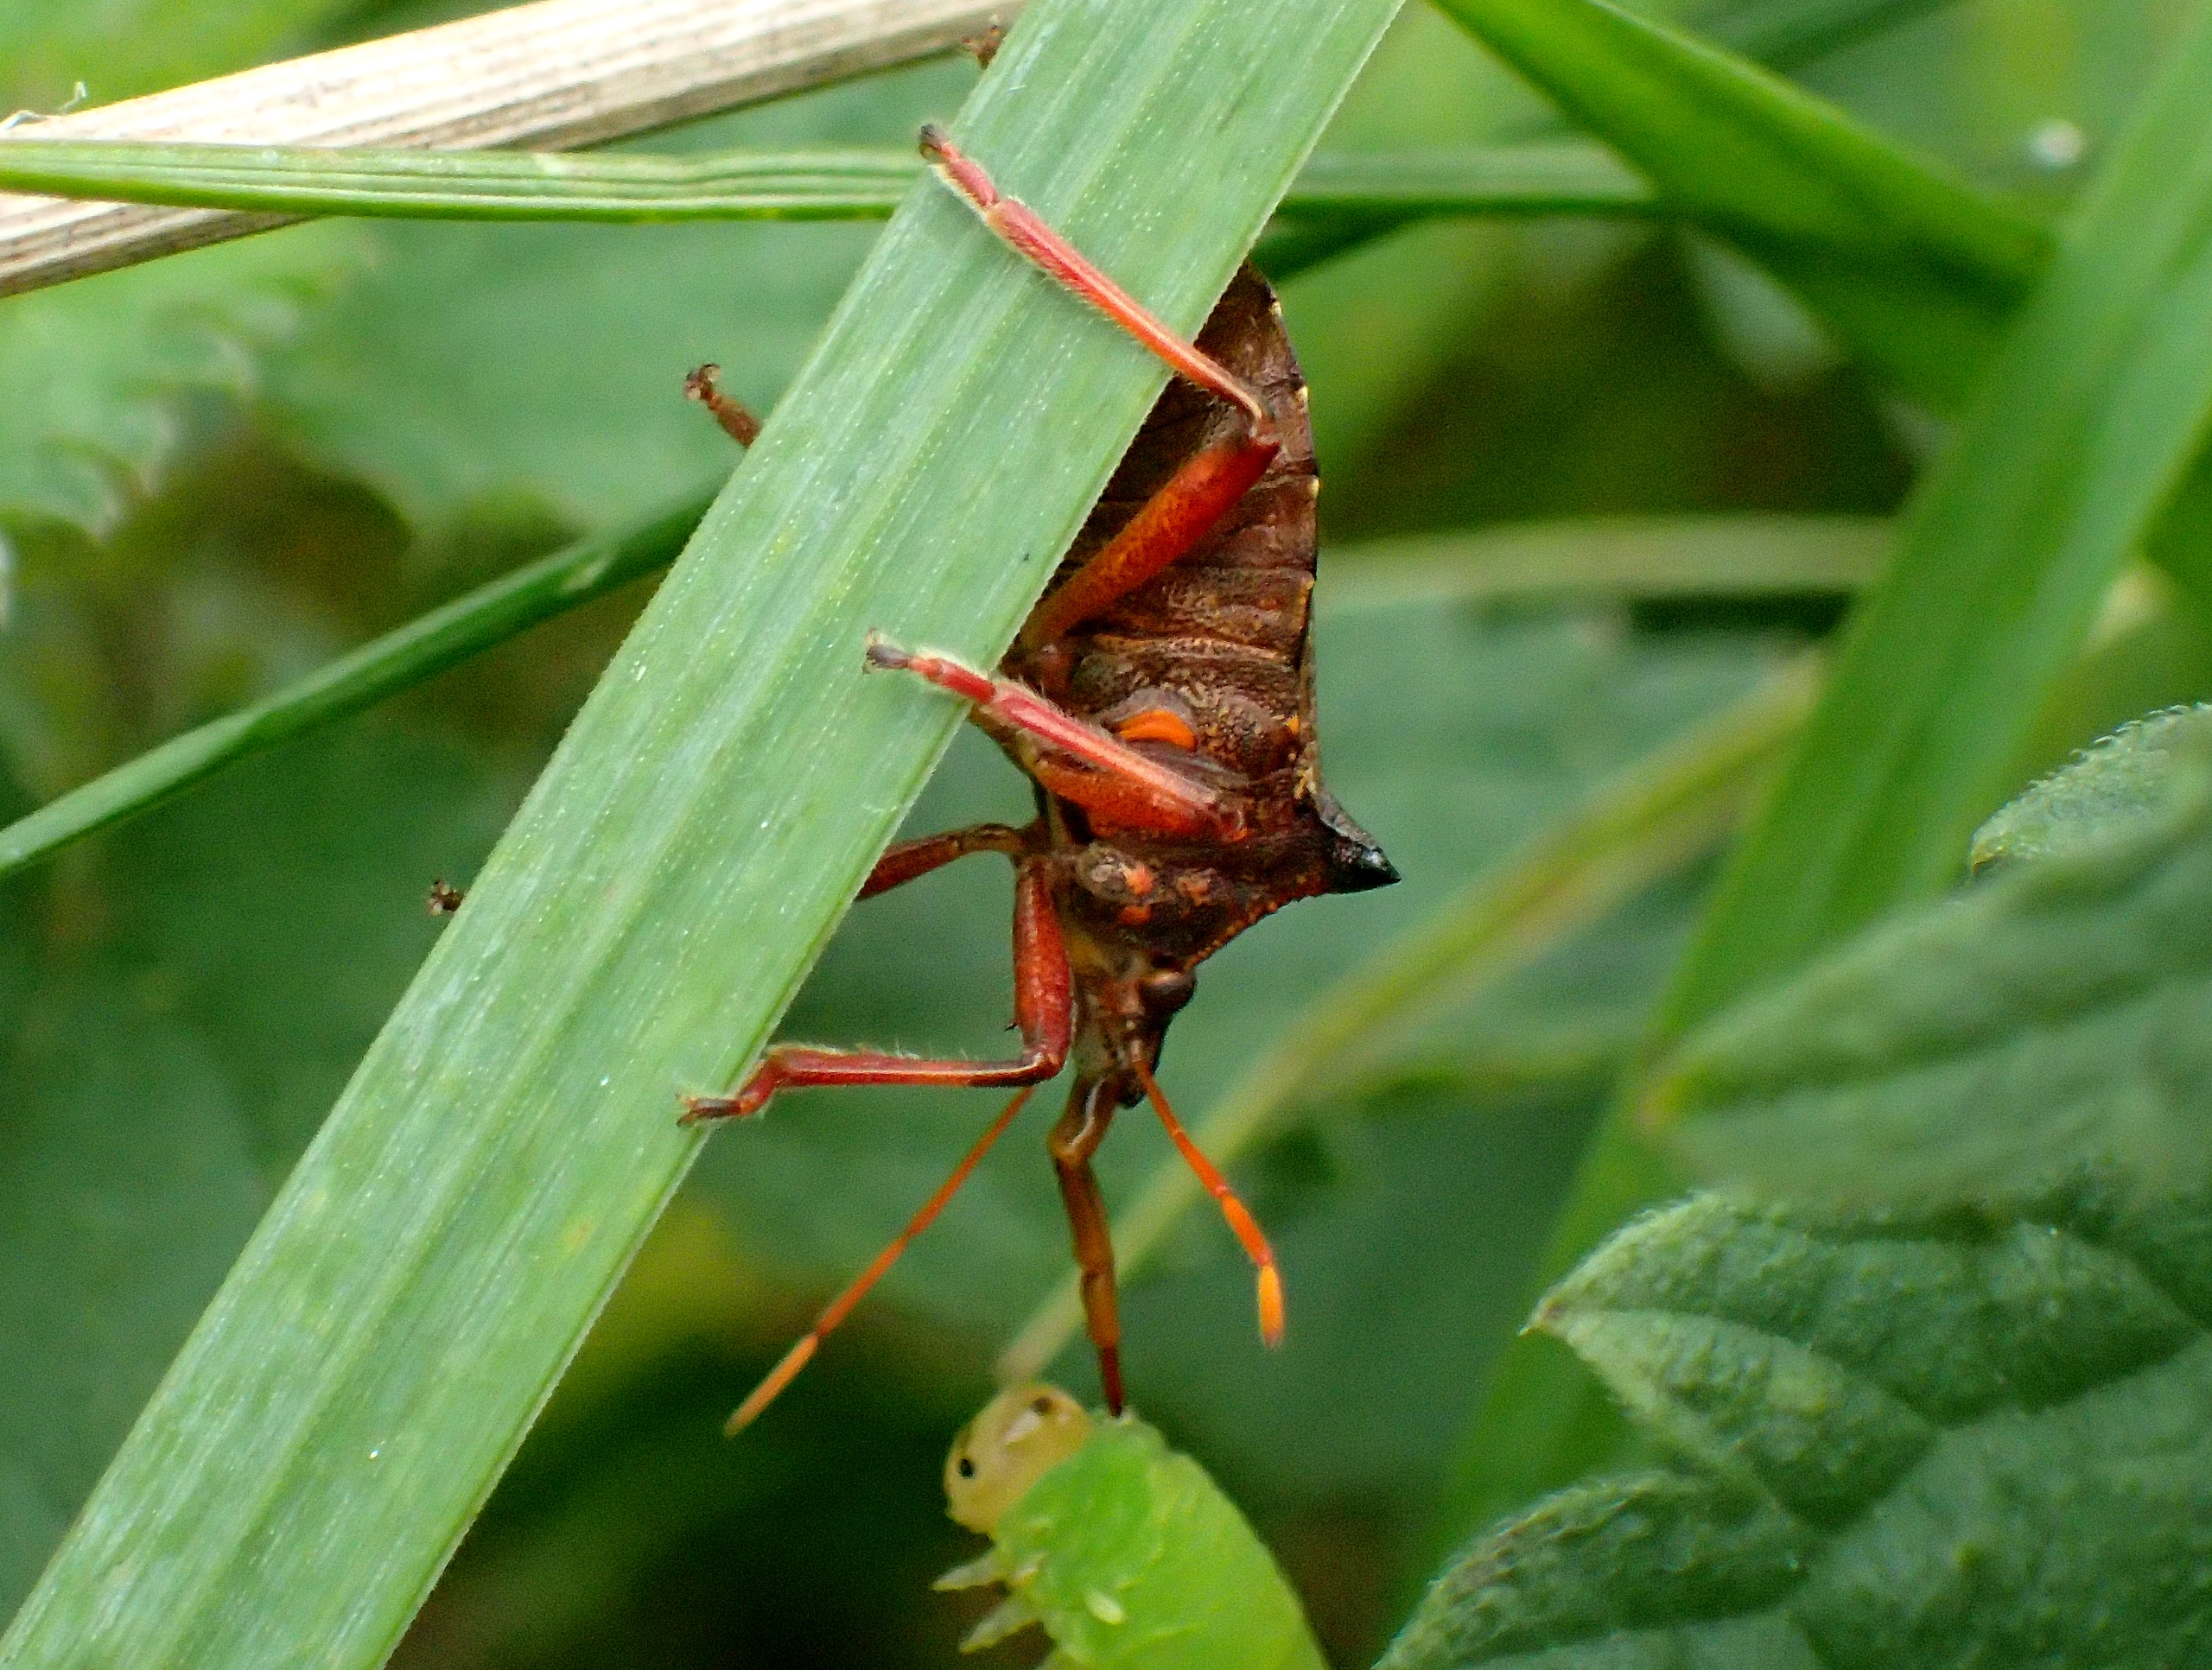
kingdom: Animalia
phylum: Arthropoda
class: Insecta
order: Hemiptera
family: Pentatomidae
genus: Picromerus
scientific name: Picromerus bidens
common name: Torntæge
